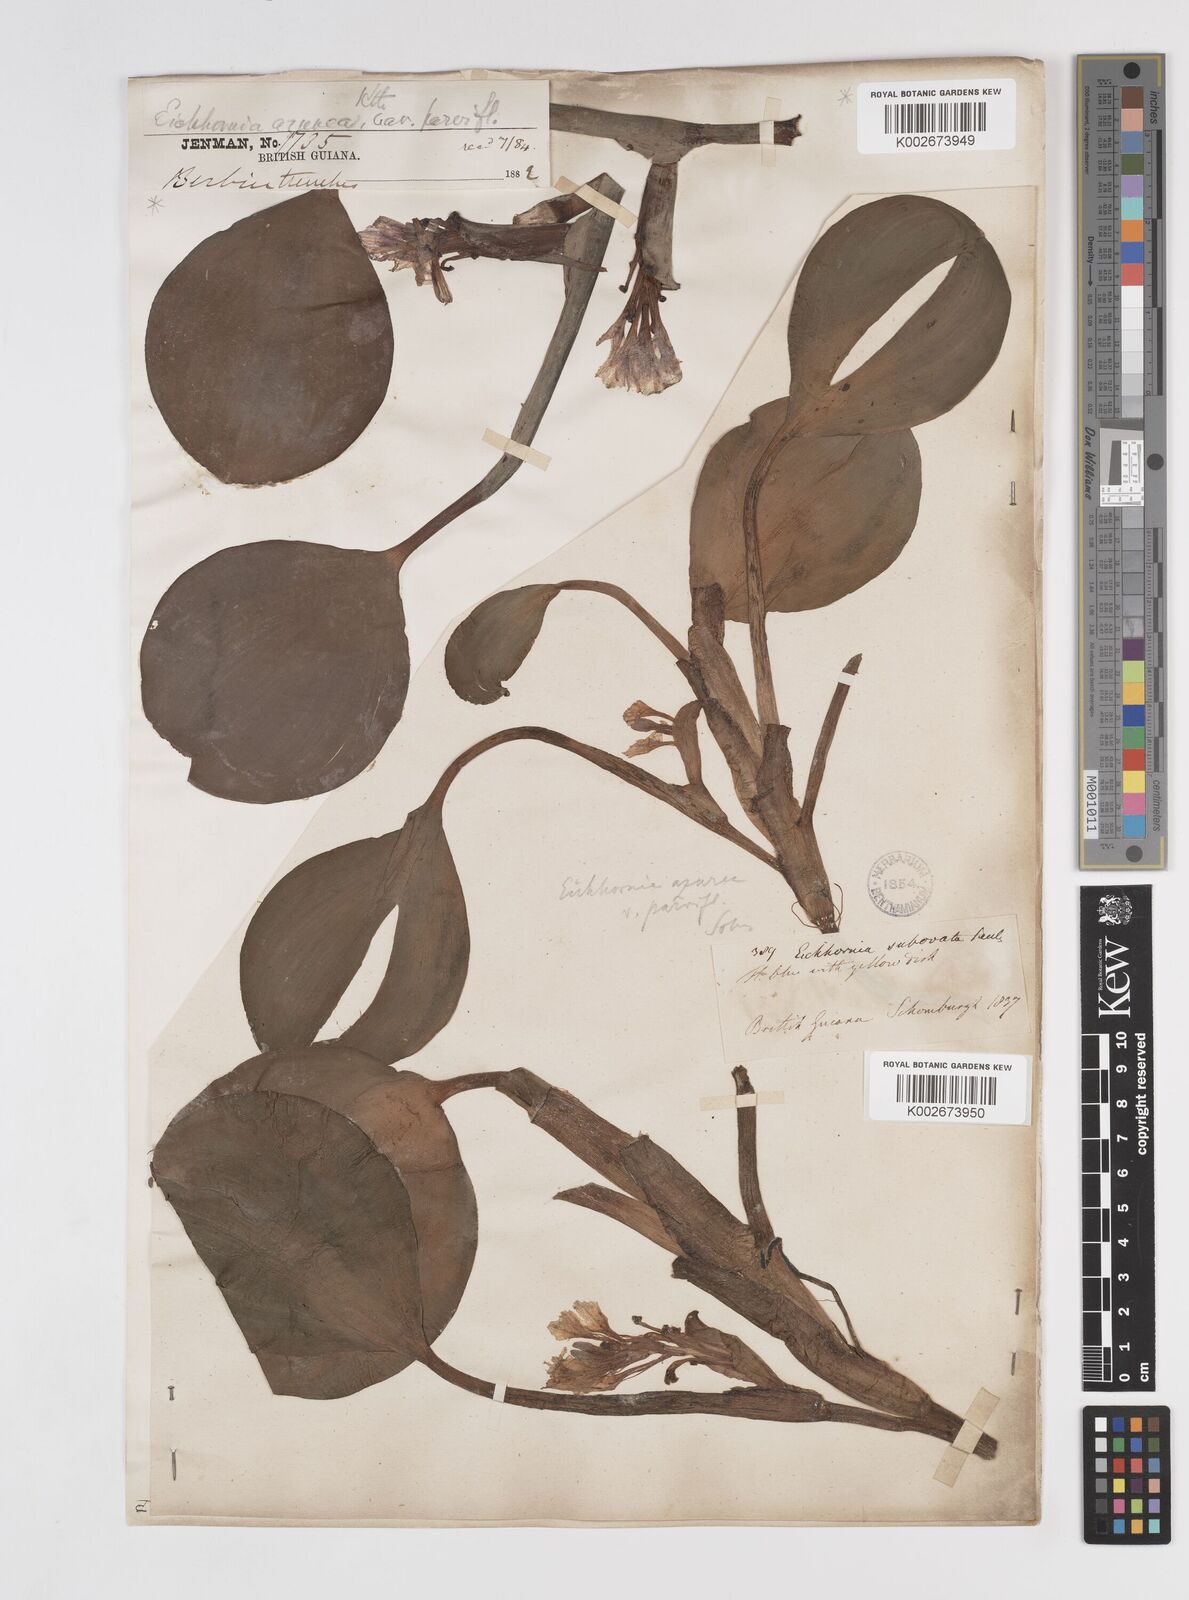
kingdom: Plantae
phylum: Tracheophyta
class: Liliopsida
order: Commelinales
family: Pontederiaceae
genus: Pontederia
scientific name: Pontederia azurea
